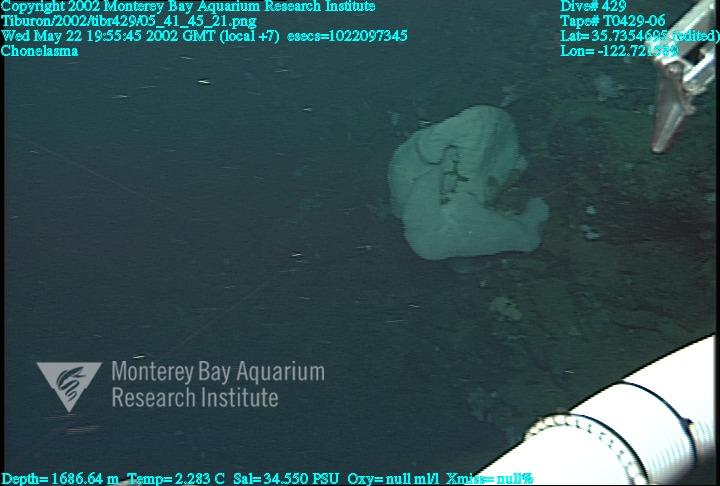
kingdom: Animalia
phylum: Porifera
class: Hexactinellida
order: Sceptrulophora
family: Euretidae
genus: Chonelasma
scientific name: Chonelasma
